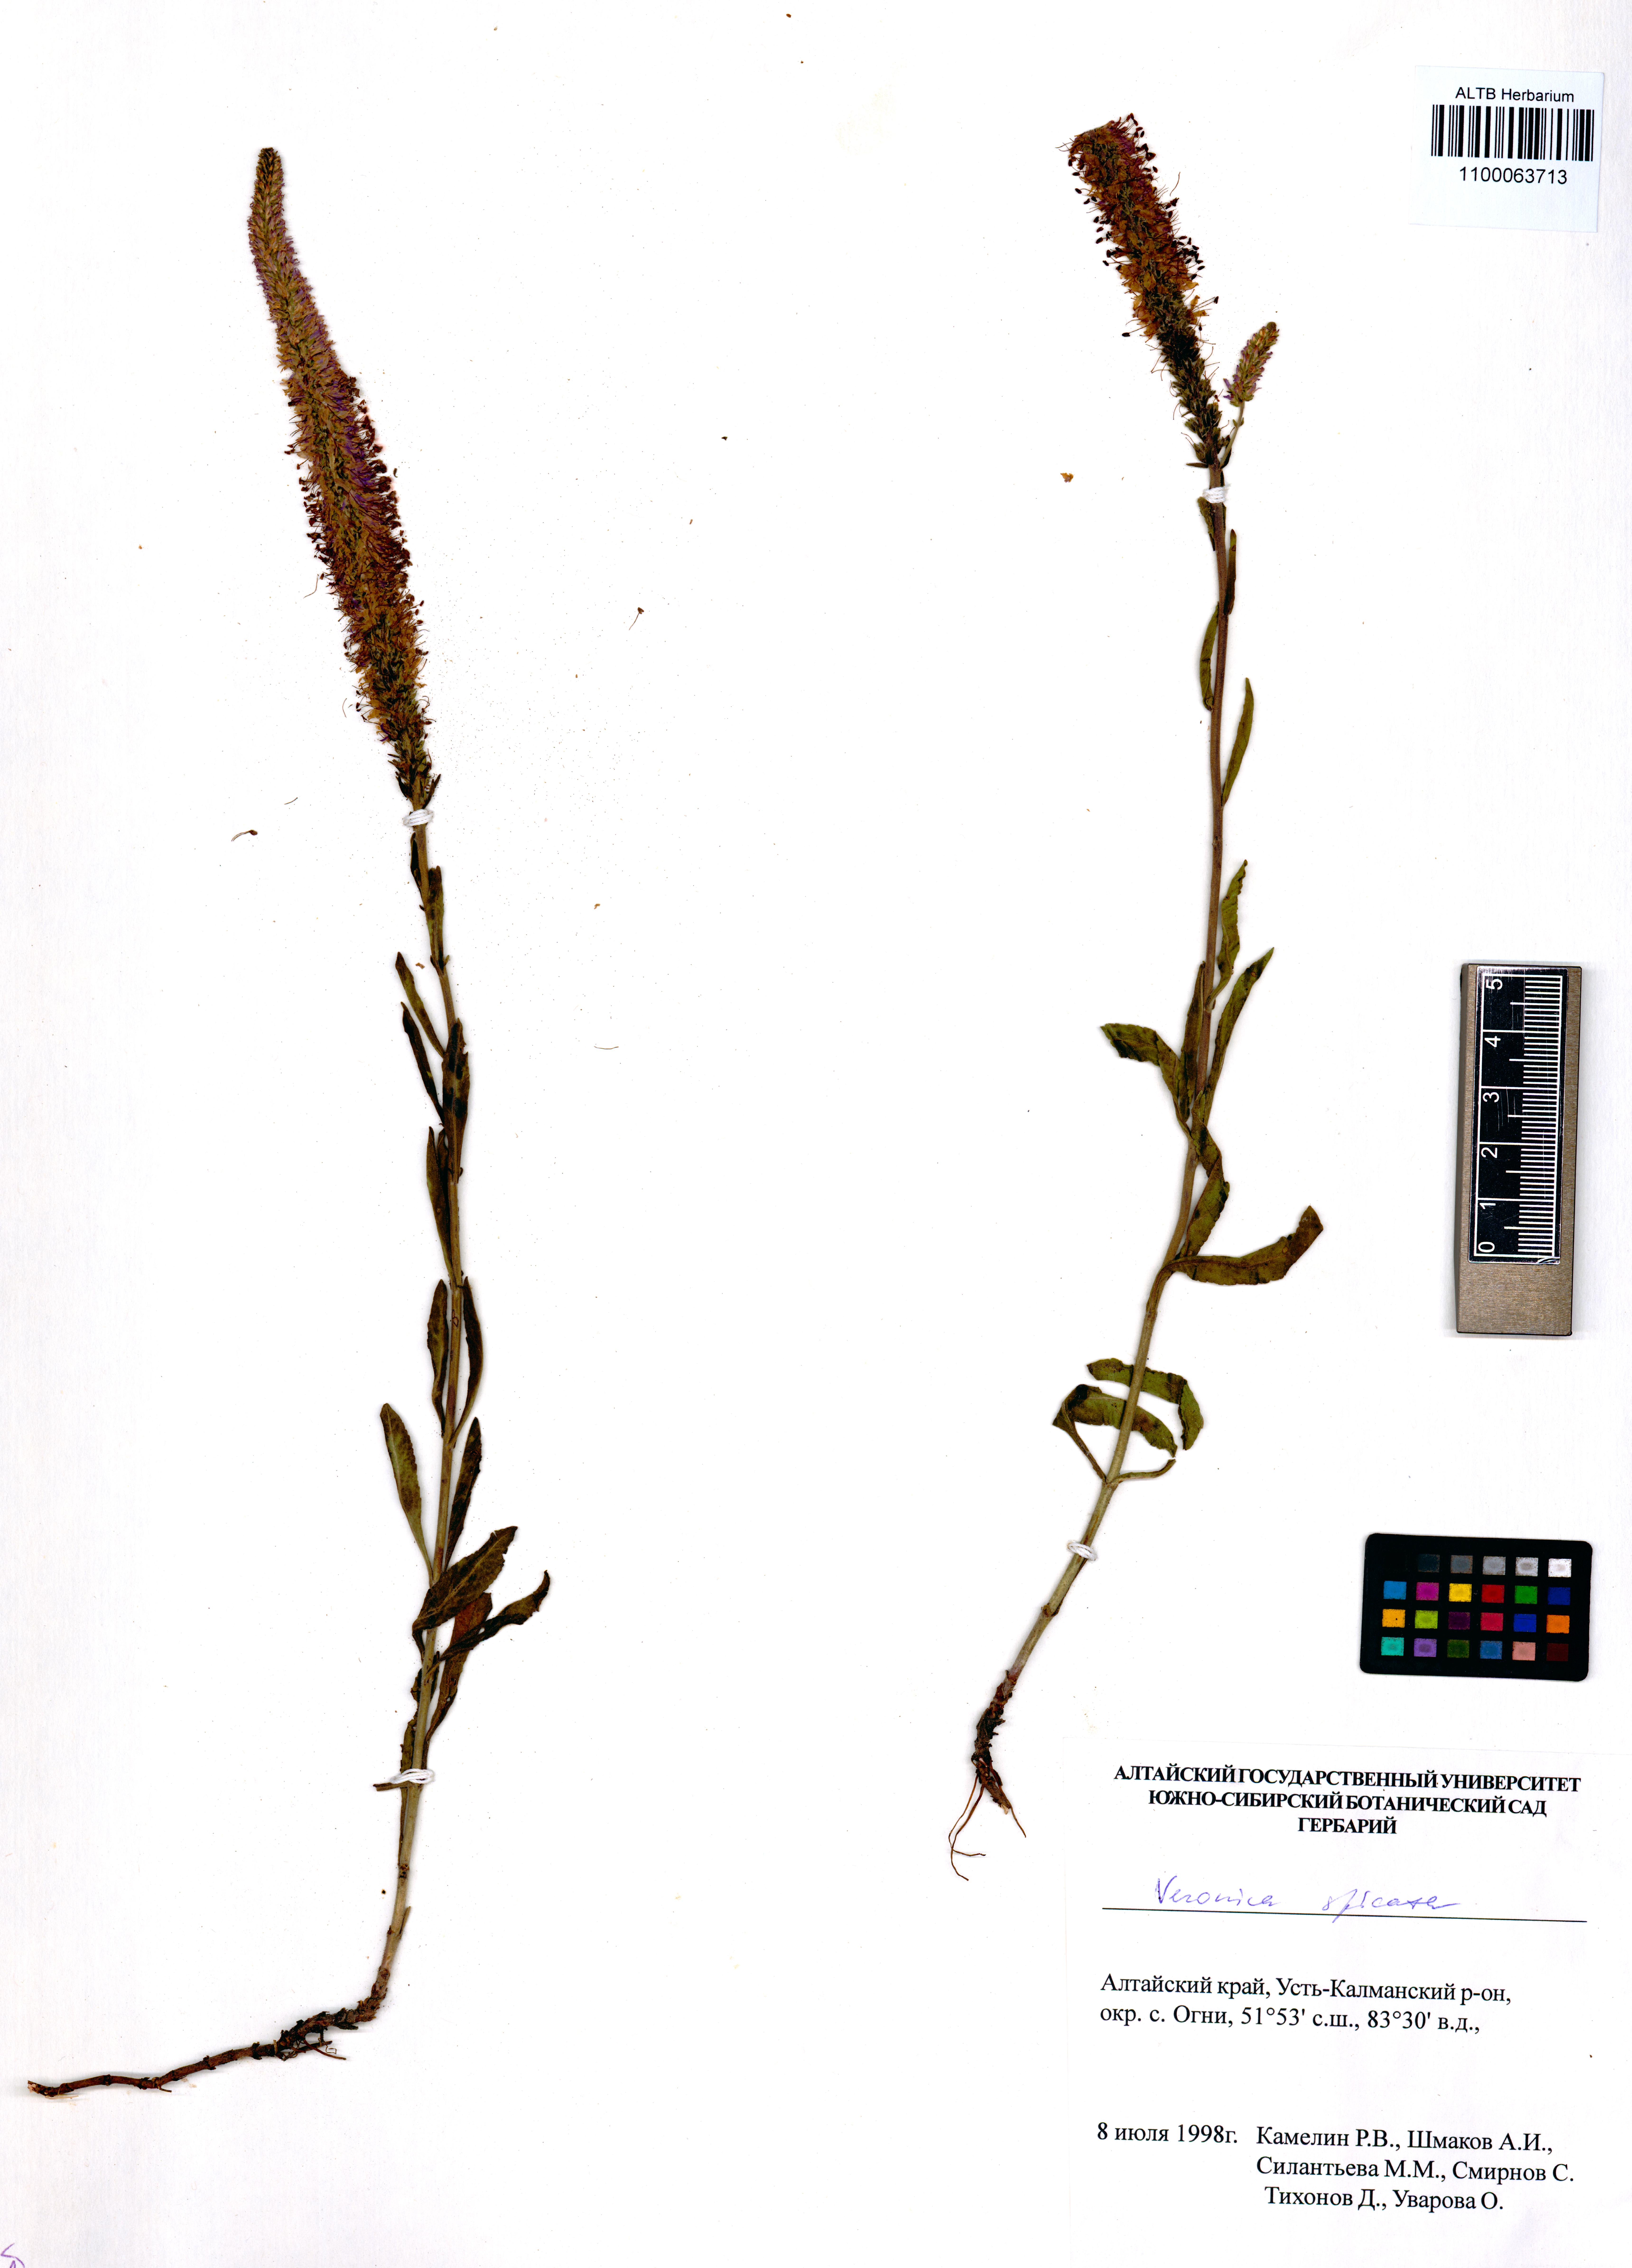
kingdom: Plantae
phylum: Tracheophyta
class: Magnoliopsida
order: Lamiales
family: Plantaginaceae
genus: Veronica
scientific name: Veronica spicata
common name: Spiked speedwell
